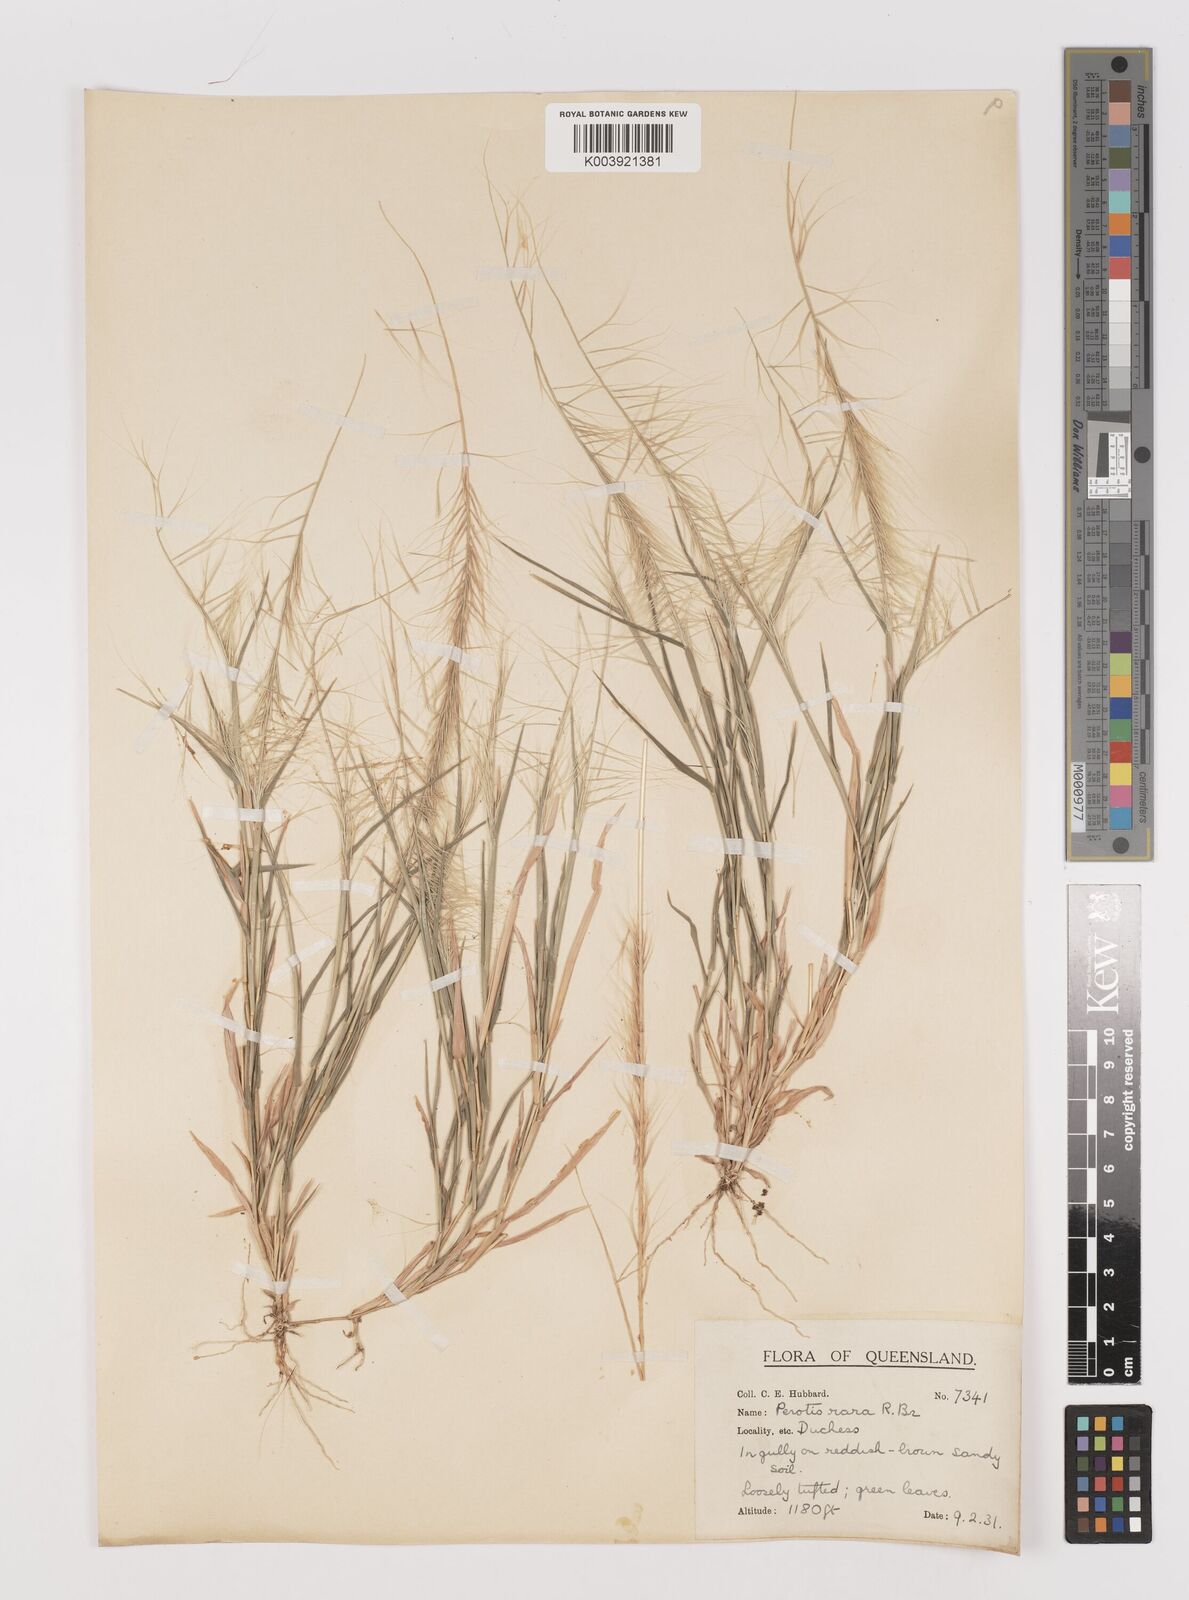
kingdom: Plantae
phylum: Tracheophyta
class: Liliopsida
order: Poales
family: Poaceae
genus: Perotis
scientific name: Perotis rara
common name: Comet grass
